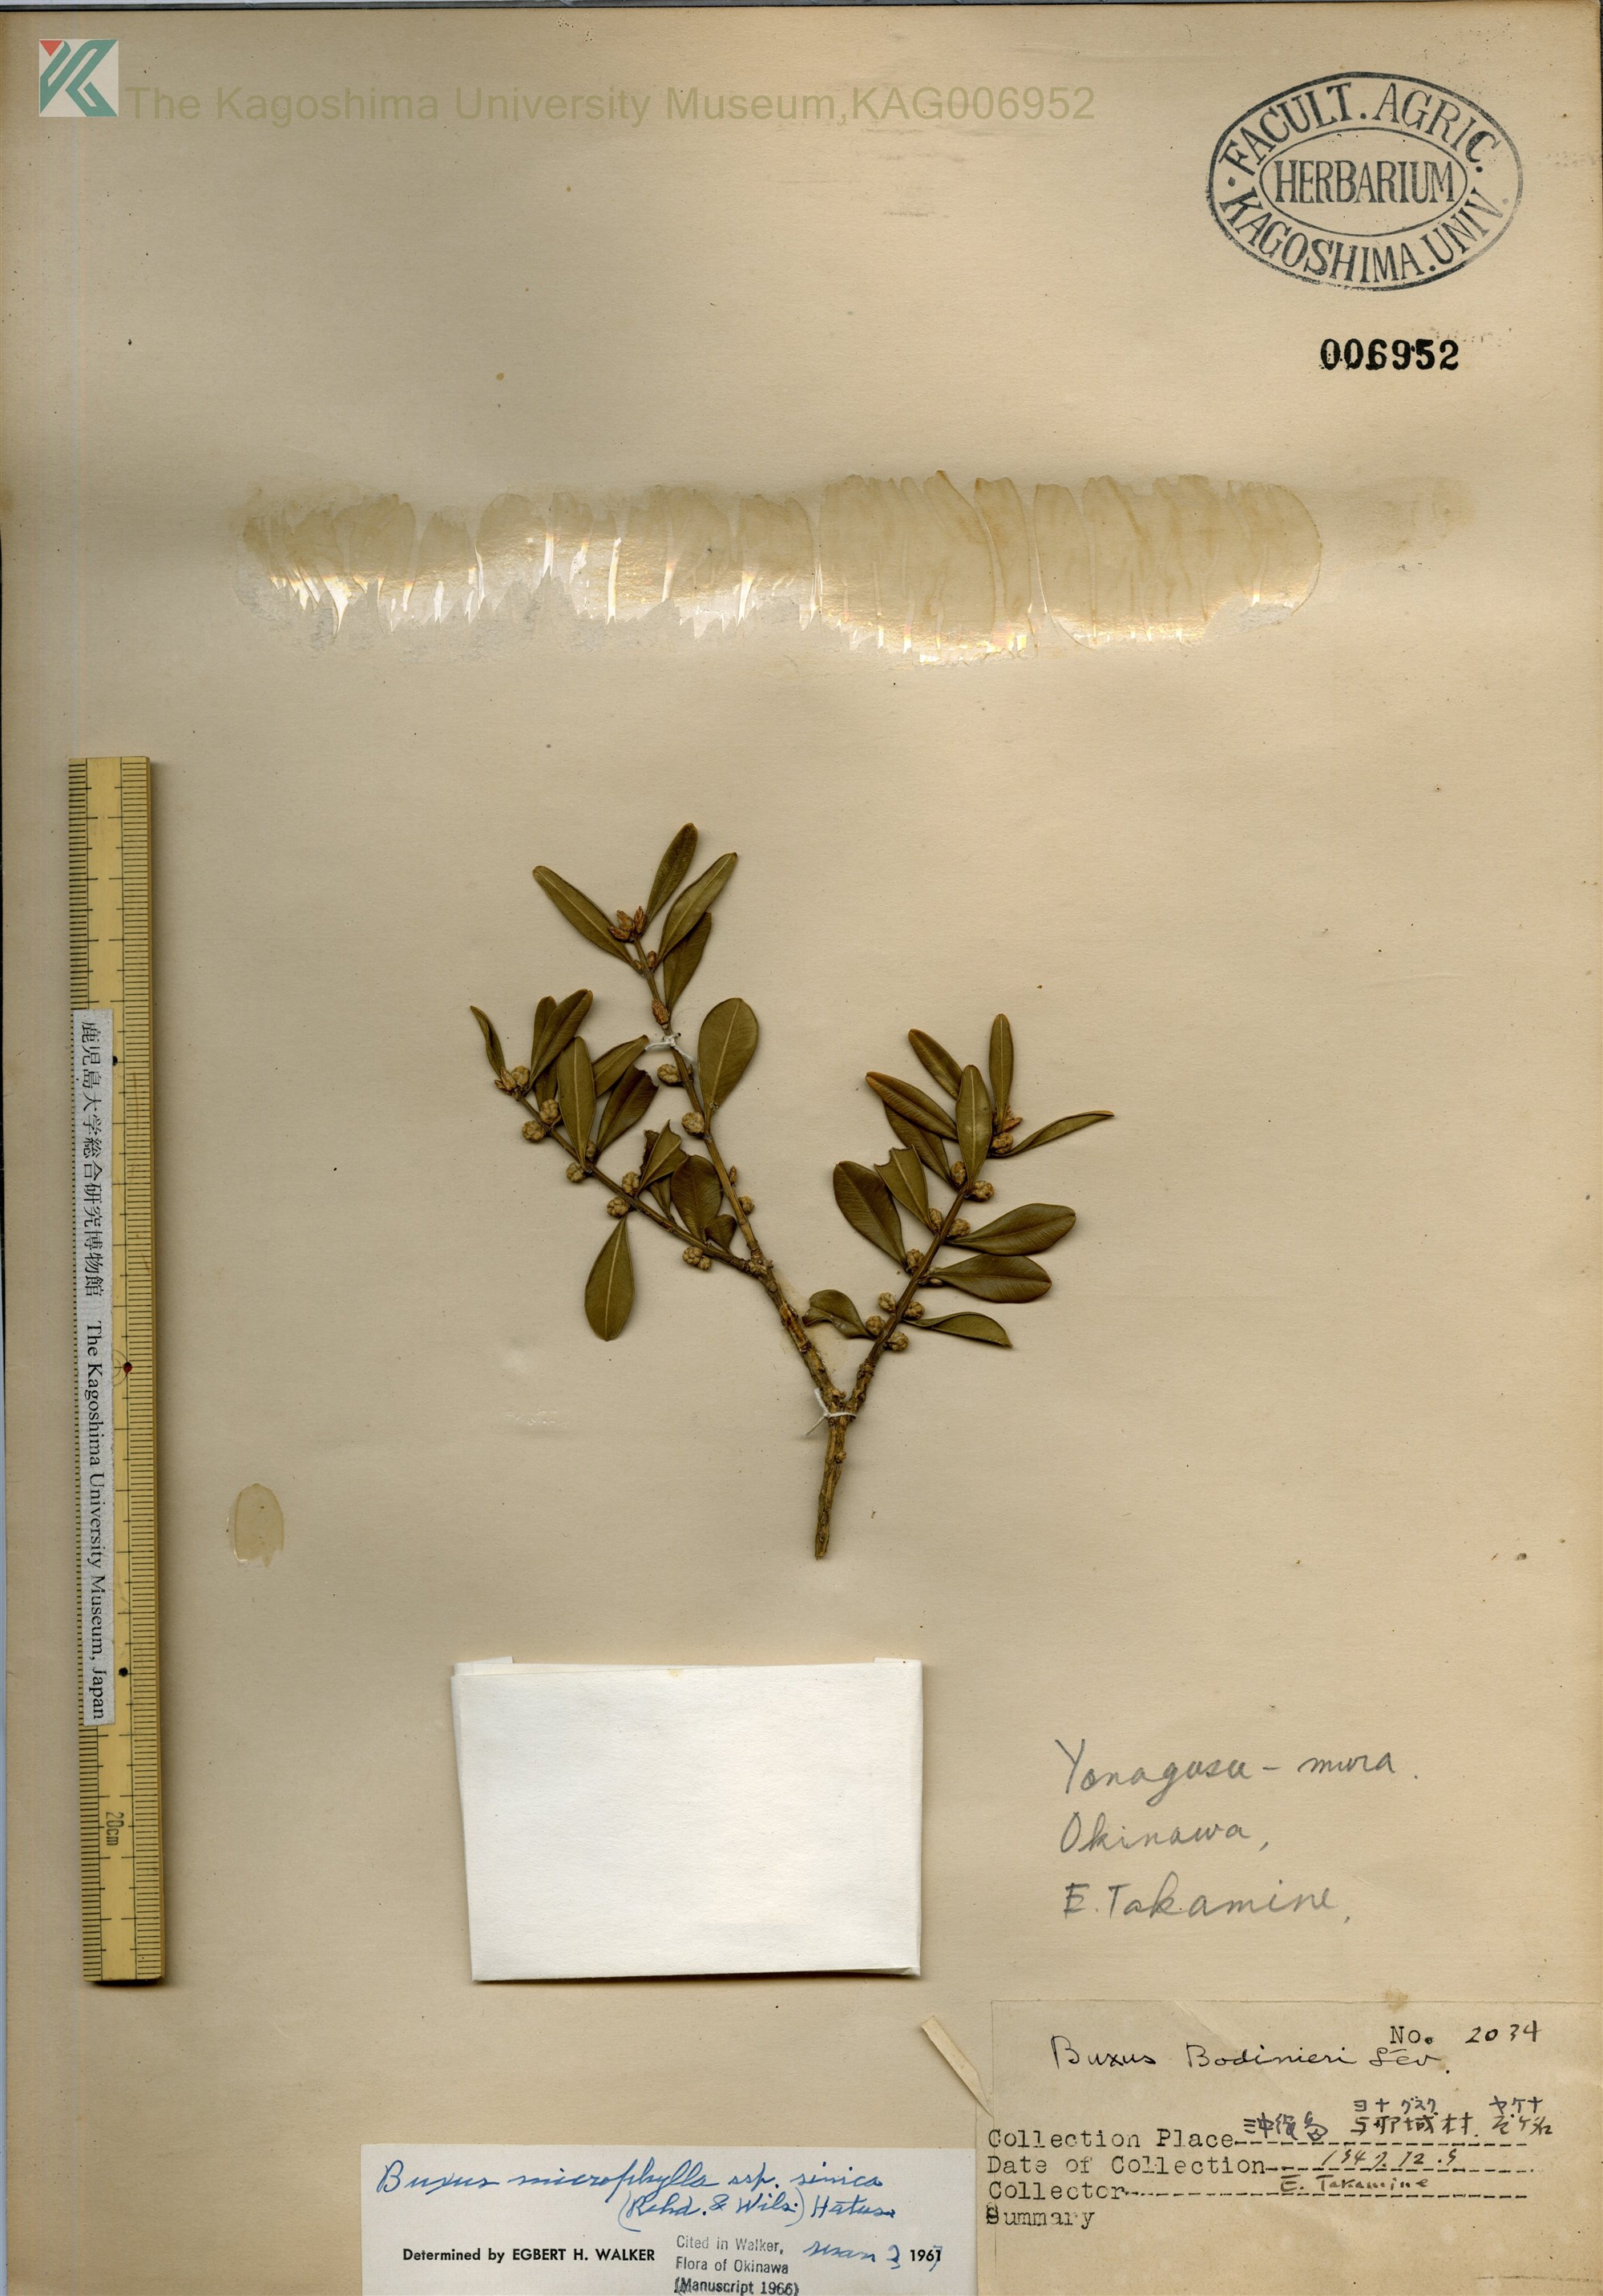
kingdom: Plantae
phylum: Tracheophyta
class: Magnoliopsida
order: Buxales
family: Buxaceae
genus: Buxus
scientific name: Buxus bodinieri
